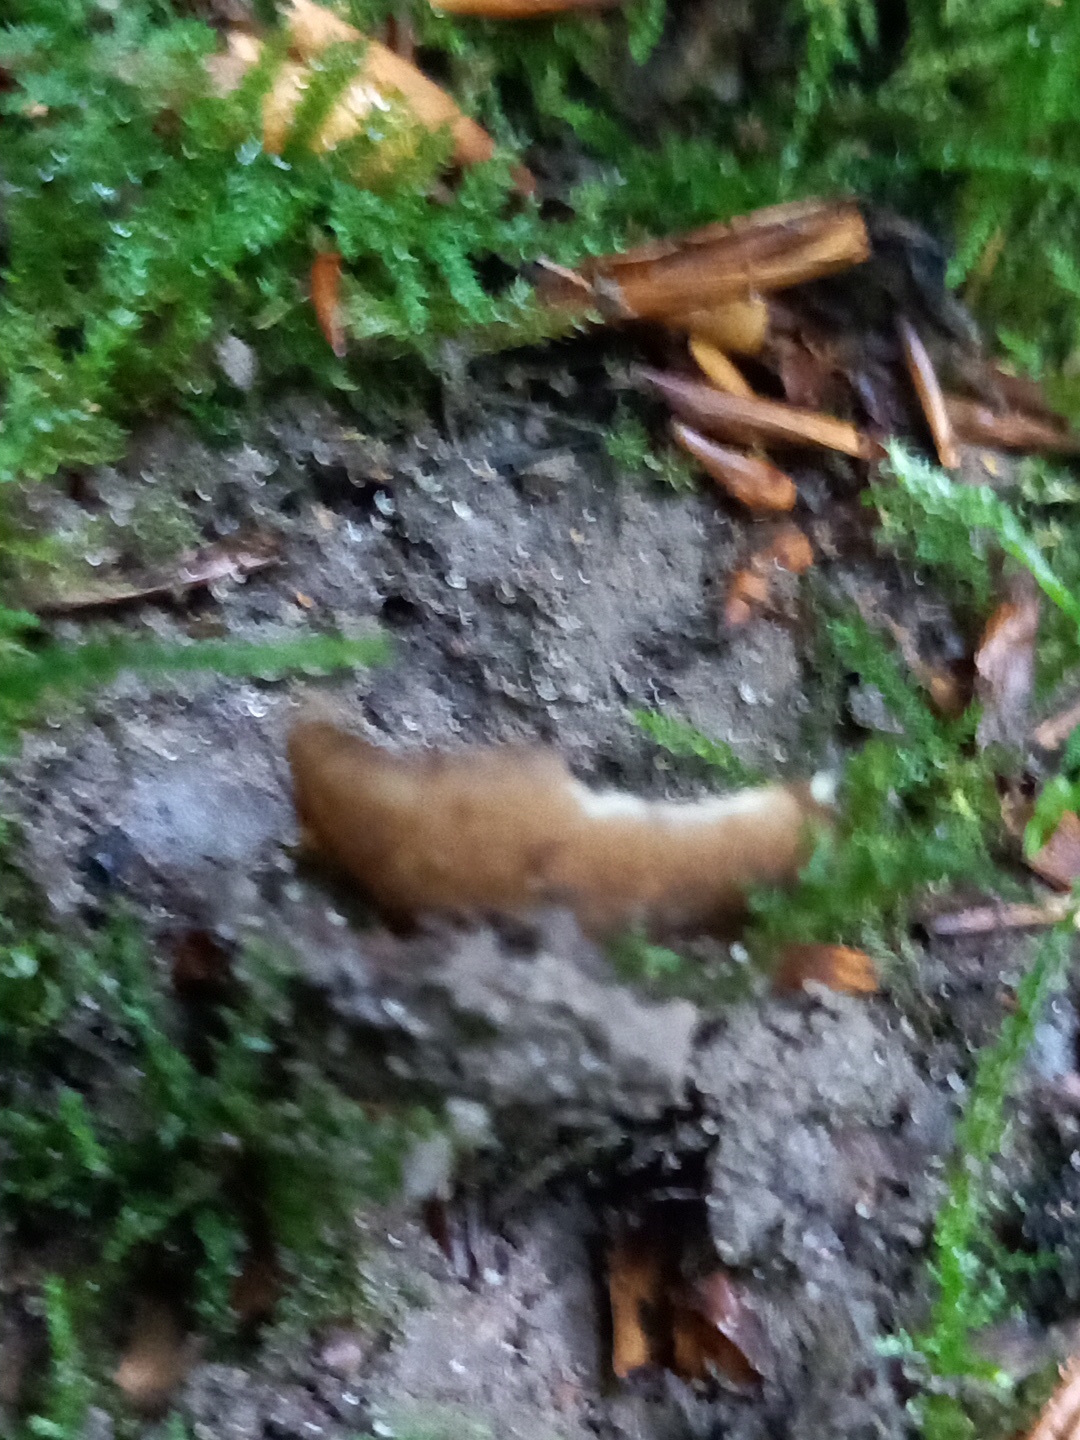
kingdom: Fungi
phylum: Ascomycota
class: Pezizomycetes
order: Pezizales
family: Pyronemataceae
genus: Humaria
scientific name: Humaria hemisphaerica
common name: halvkugleformet børstebæger
